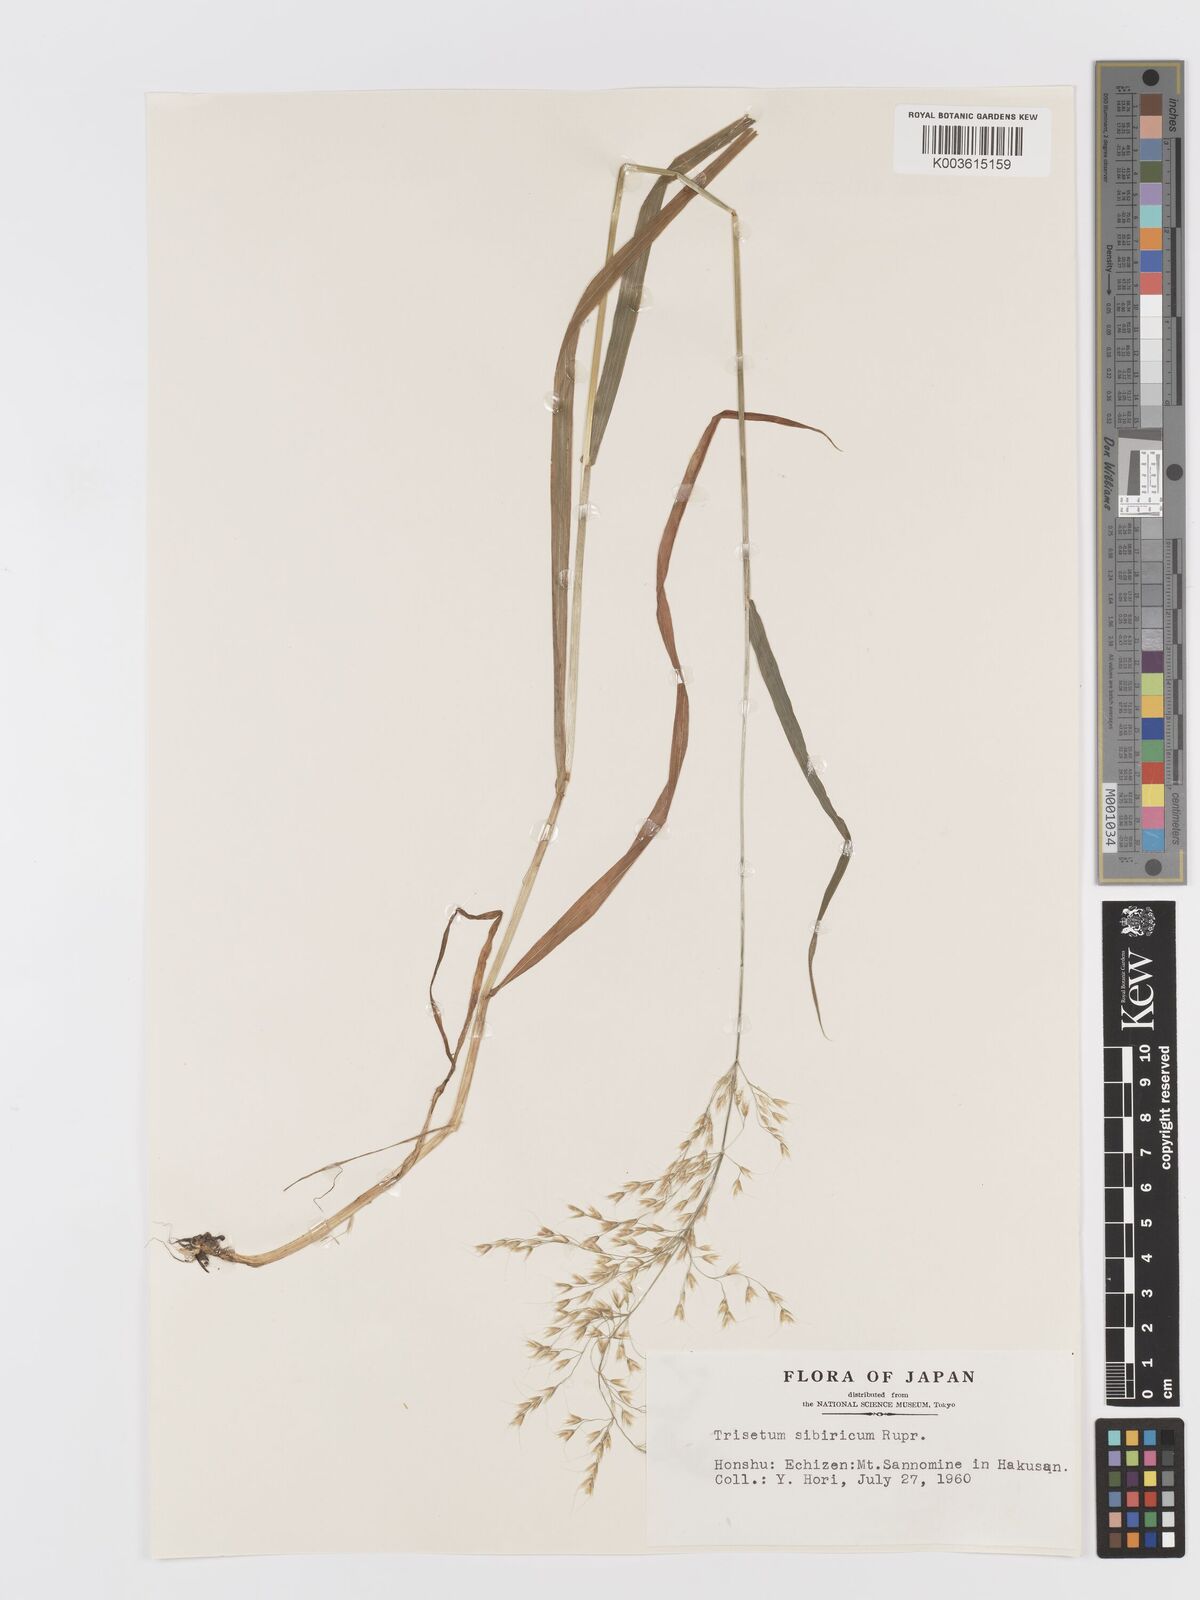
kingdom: Plantae
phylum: Tracheophyta
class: Liliopsida
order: Poales
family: Poaceae
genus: Sibirotrisetum
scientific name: Sibirotrisetum sibiricum
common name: Siberian false oat
